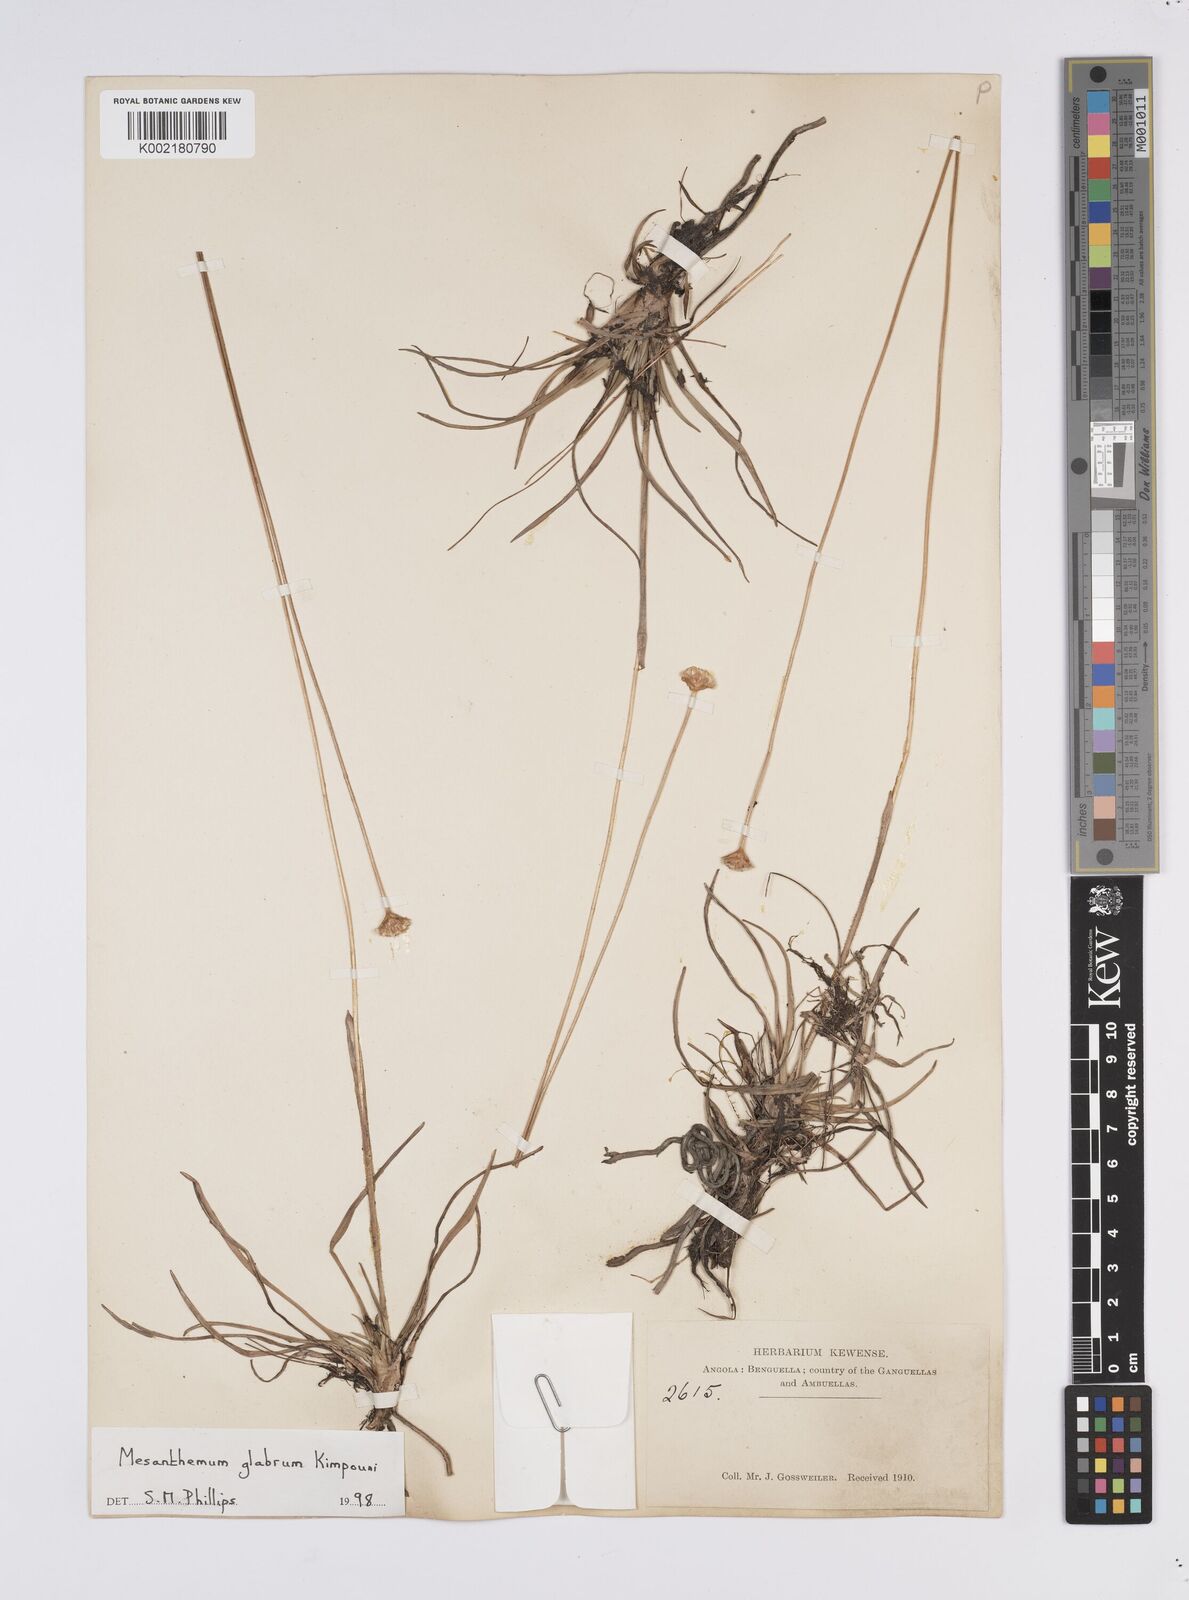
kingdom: Plantae
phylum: Tracheophyta
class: Liliopsida
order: Poales
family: Eriocaulaceae
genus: Mesanthemum
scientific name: Mesanthemum glabrum
